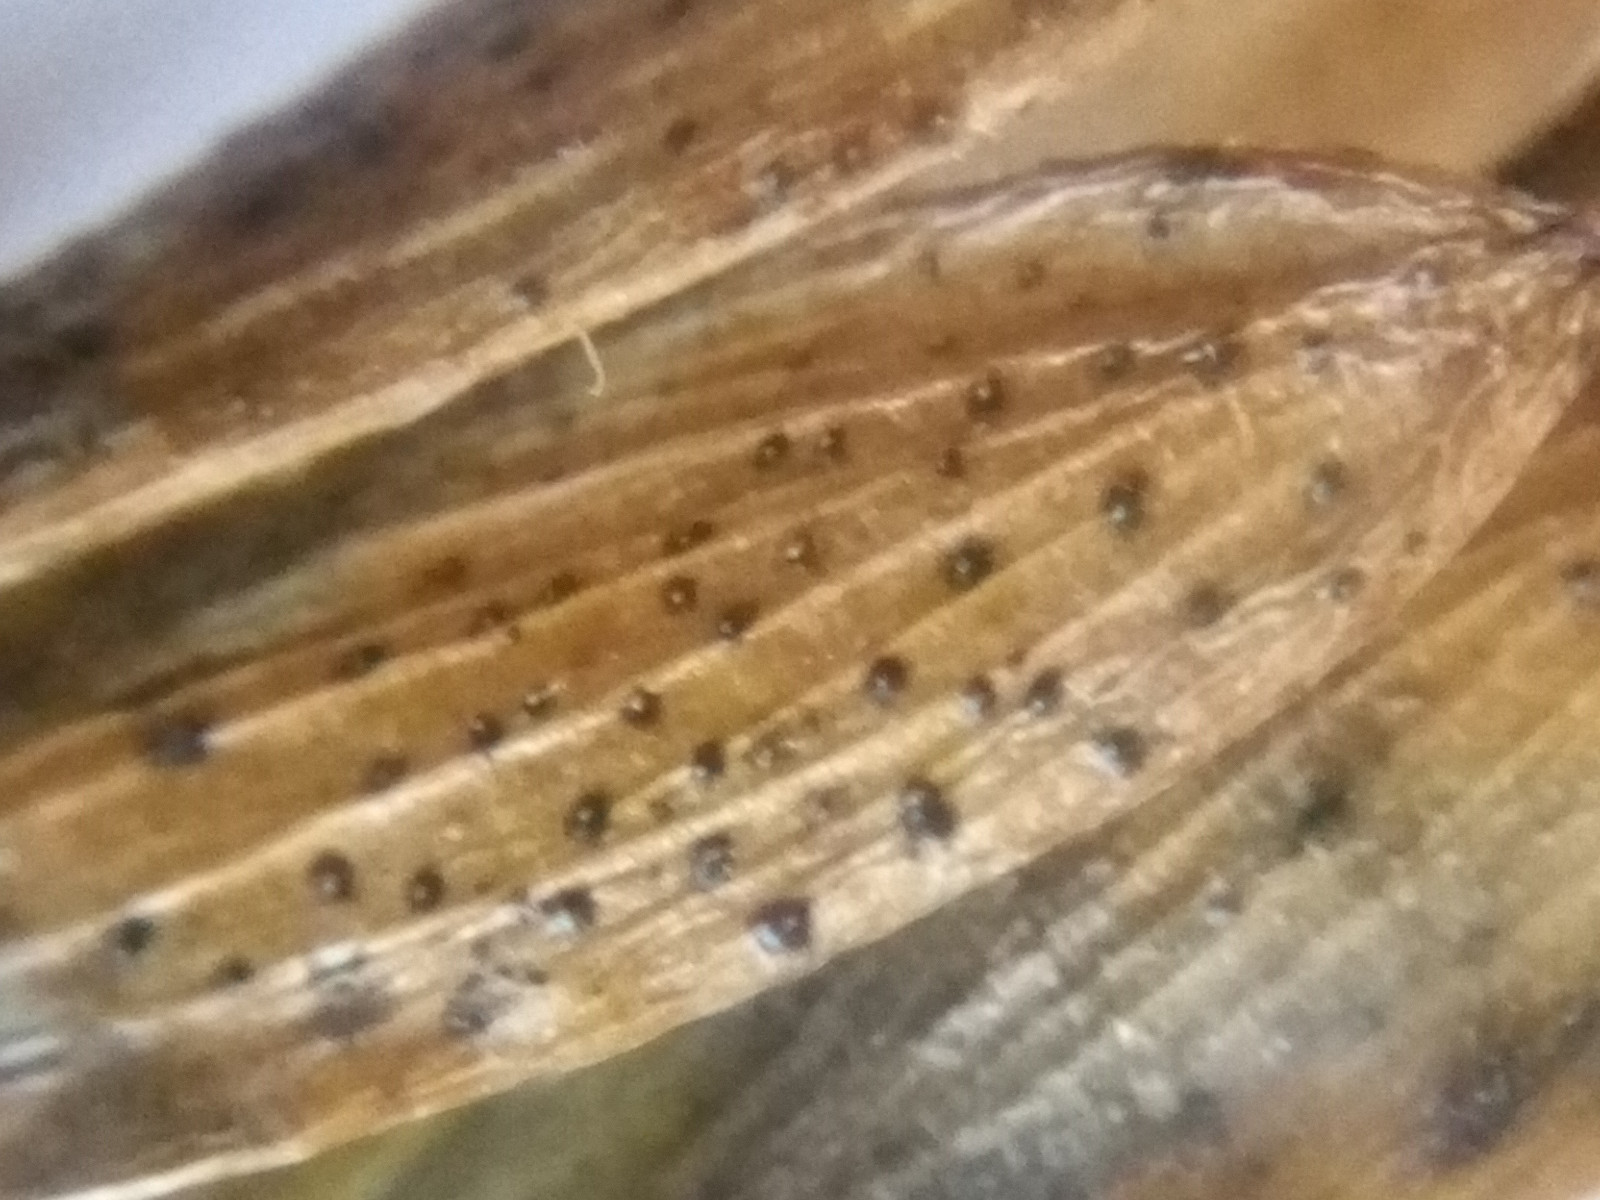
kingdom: Fungi
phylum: Ascomycota
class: Sordariomycetes
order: Diaporthales
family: Diaporthaceae
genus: Diaporthe
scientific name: Diaporthe samaricola
